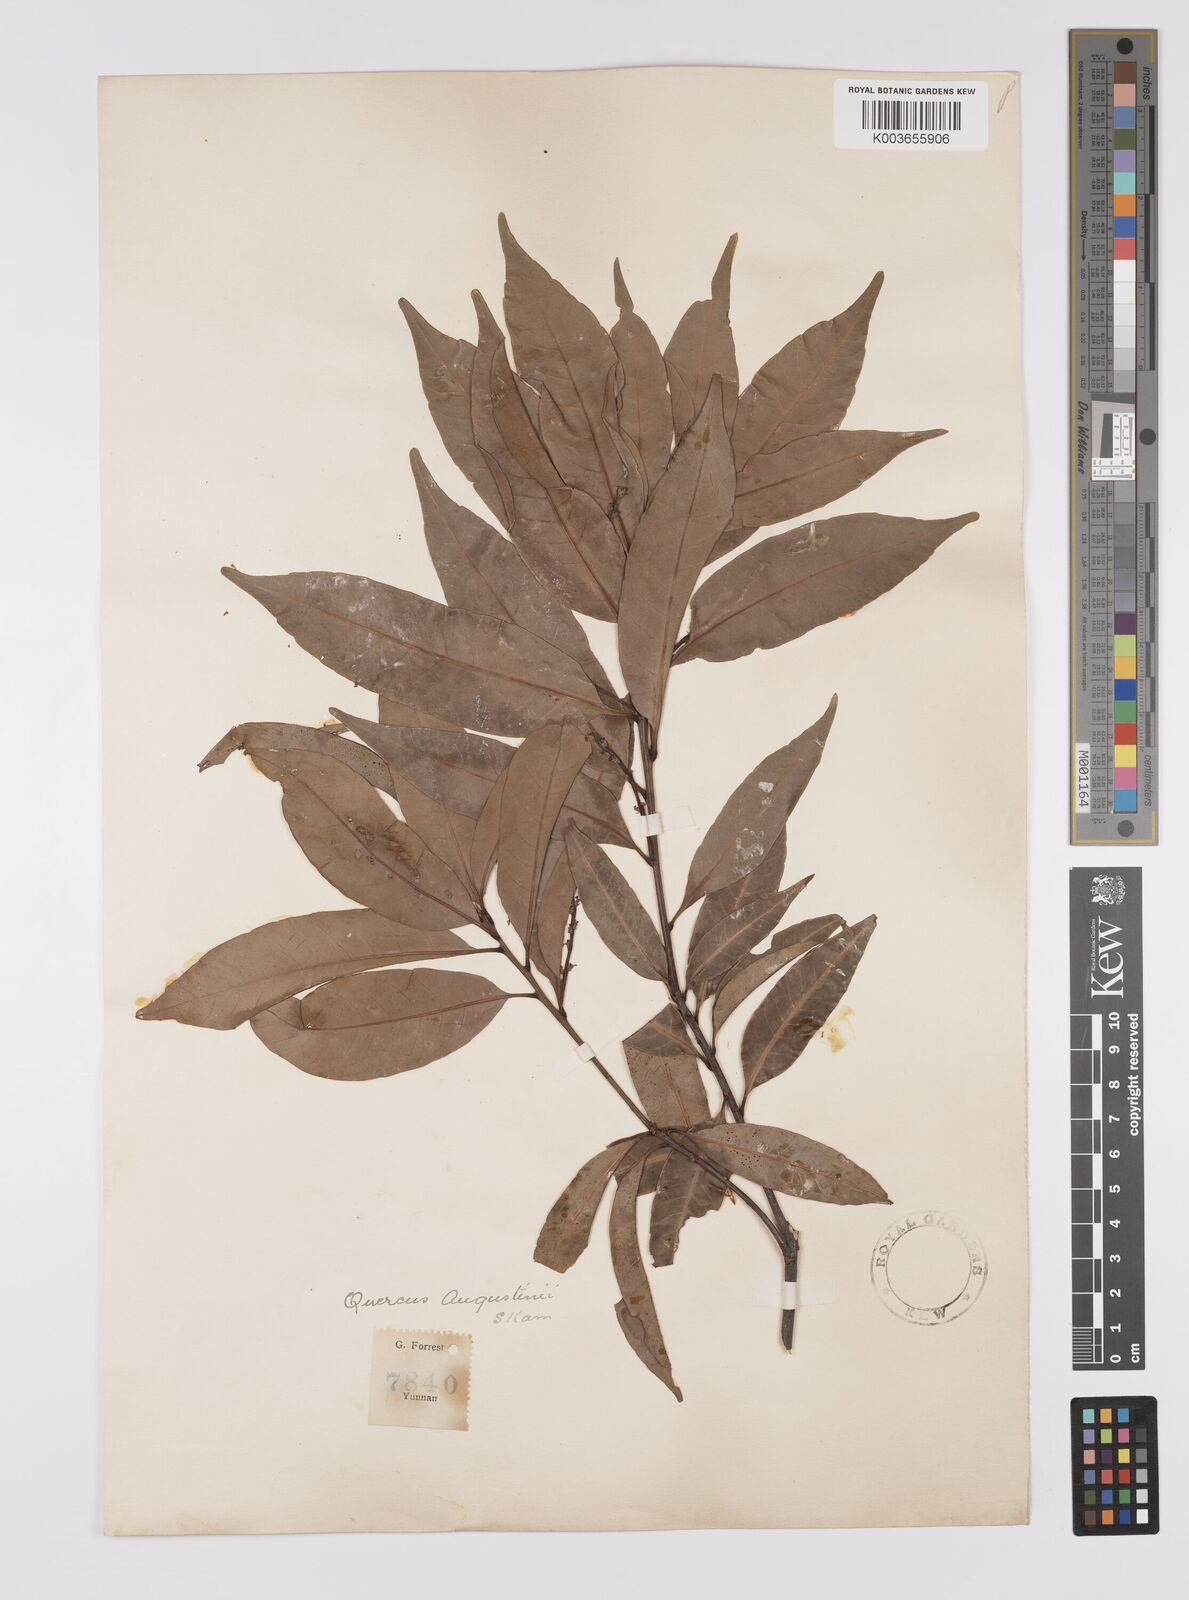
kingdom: Plantae
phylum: Tracheophyta
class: Magnoliopsida
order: Fagales
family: Fagaceae
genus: Quercus
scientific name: Quercus augustini
